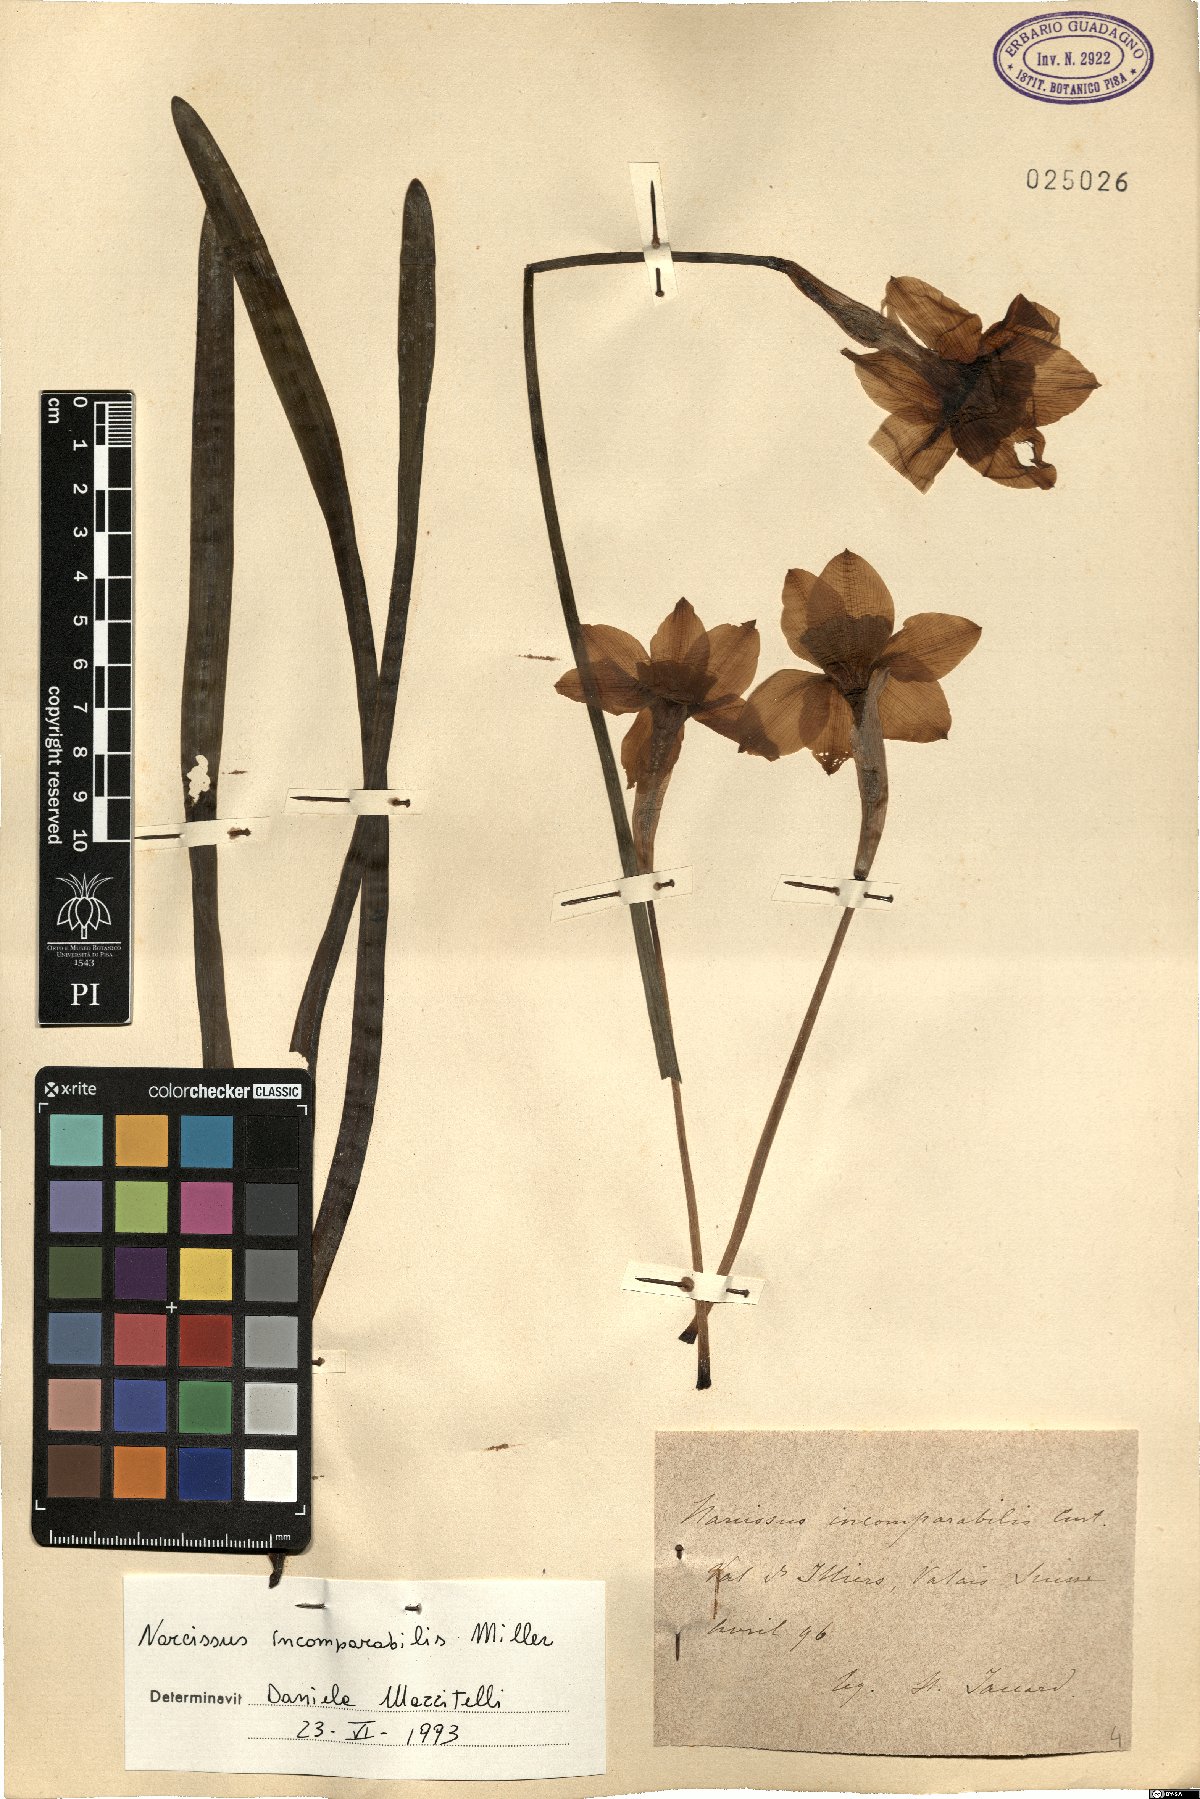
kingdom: Plantae
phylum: Tracheophyta
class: Liliopsida
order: Asparagales
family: Amaryllidaceae
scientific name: Amaryllidaceae
